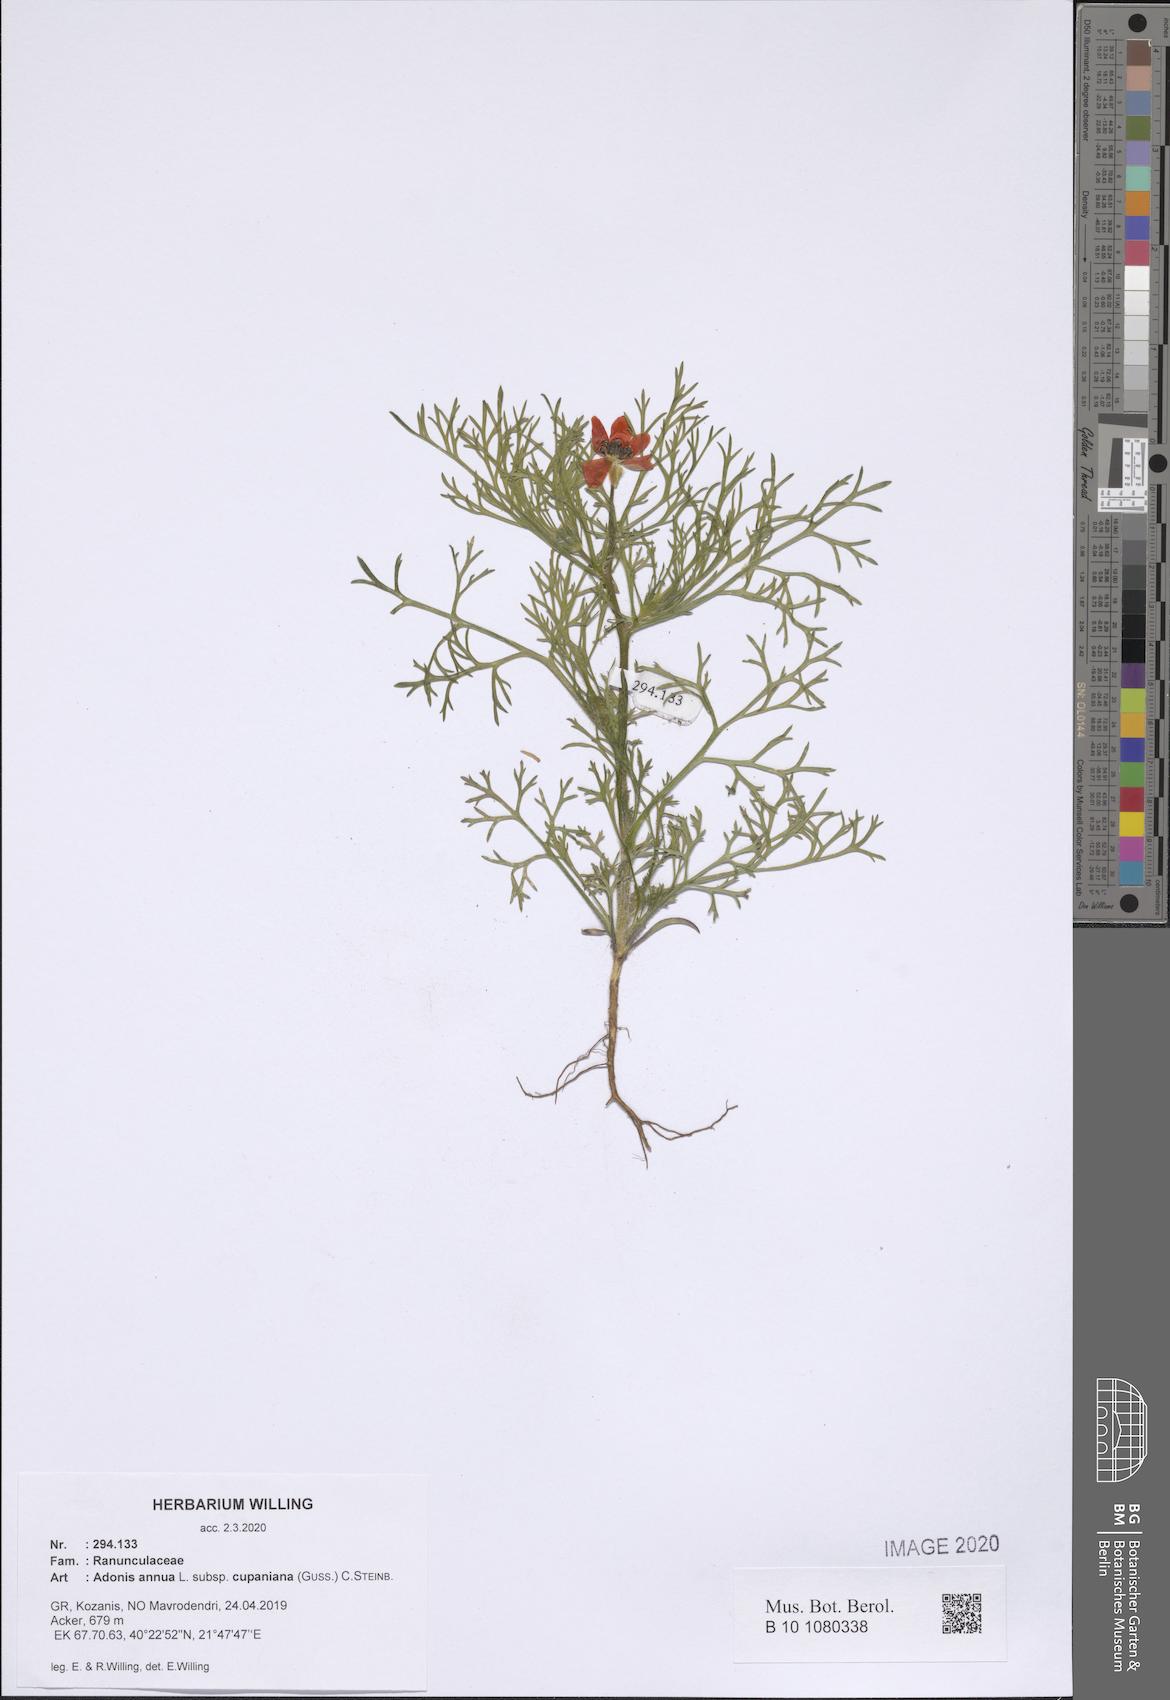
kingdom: Plantae
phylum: Tracheophyta
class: Magnoliopsida
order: Ranunculales
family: Ranunculaceae
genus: Adonis
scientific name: Adonis annua
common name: Pheasant's-eye
